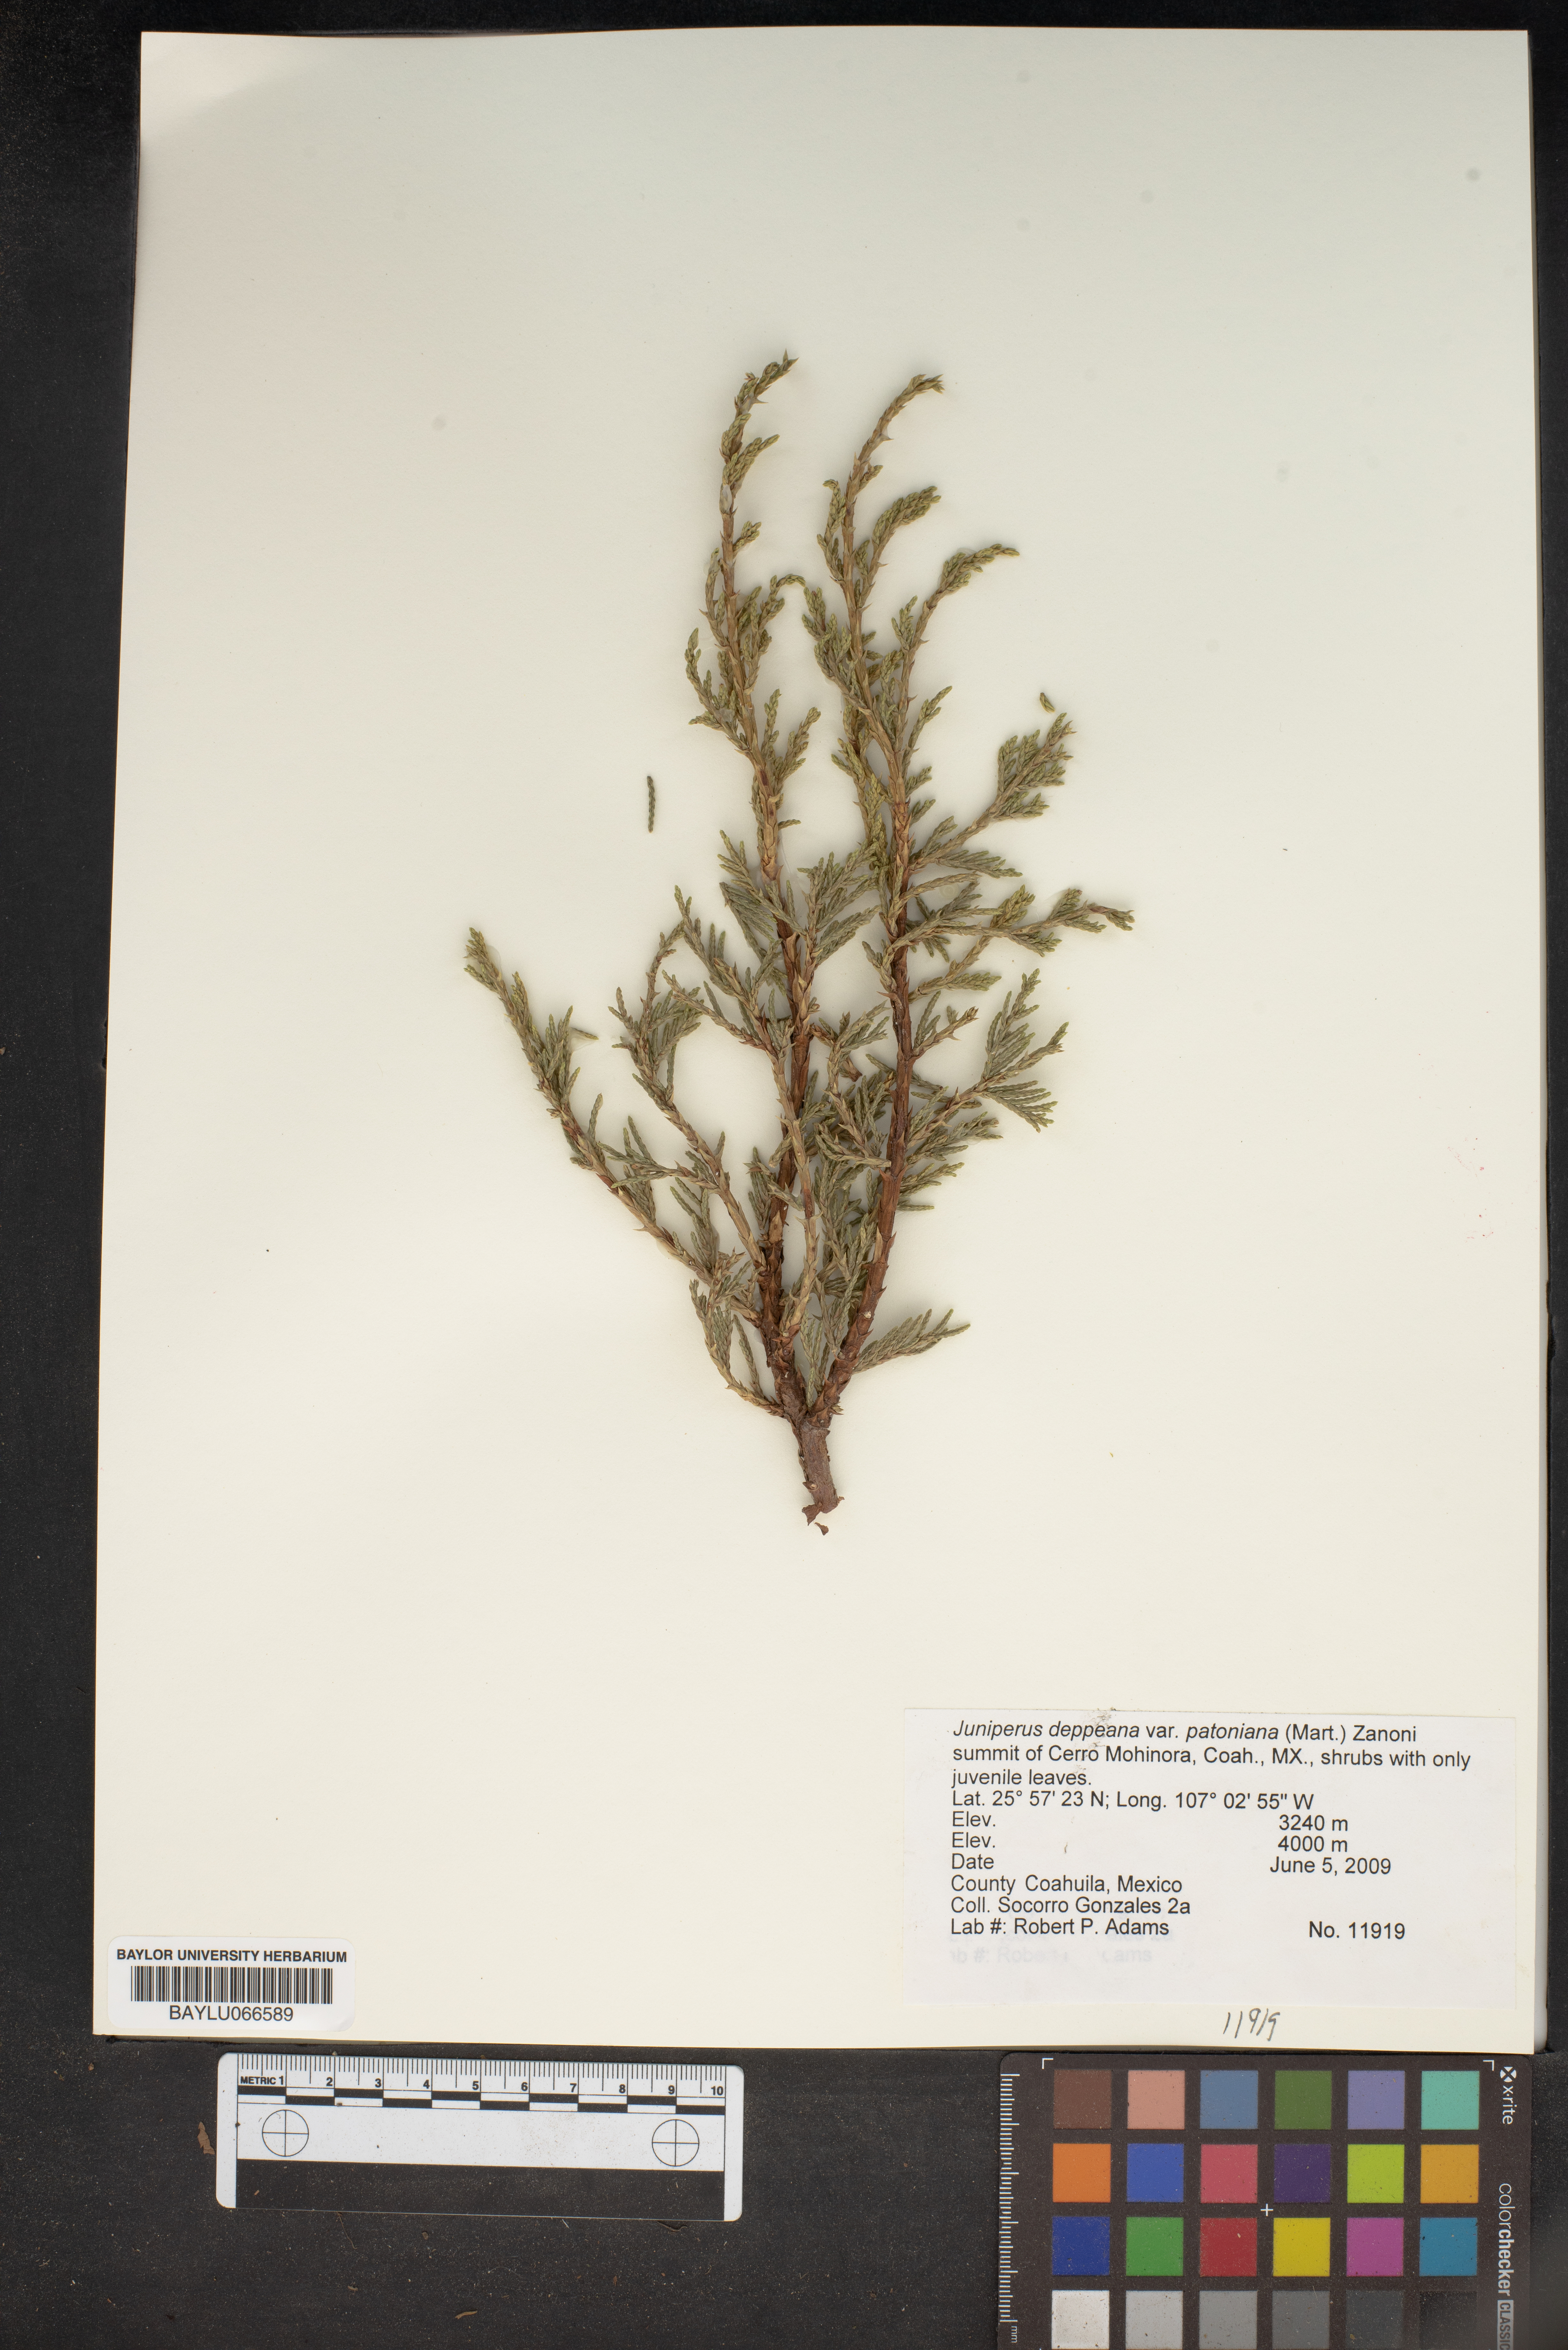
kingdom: Plantae
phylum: Tracheophyta
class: Pinopsida
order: Pinales
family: Cupressaceae
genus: Juniperus
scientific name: Juniperus deppeana
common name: Alligator juniper
